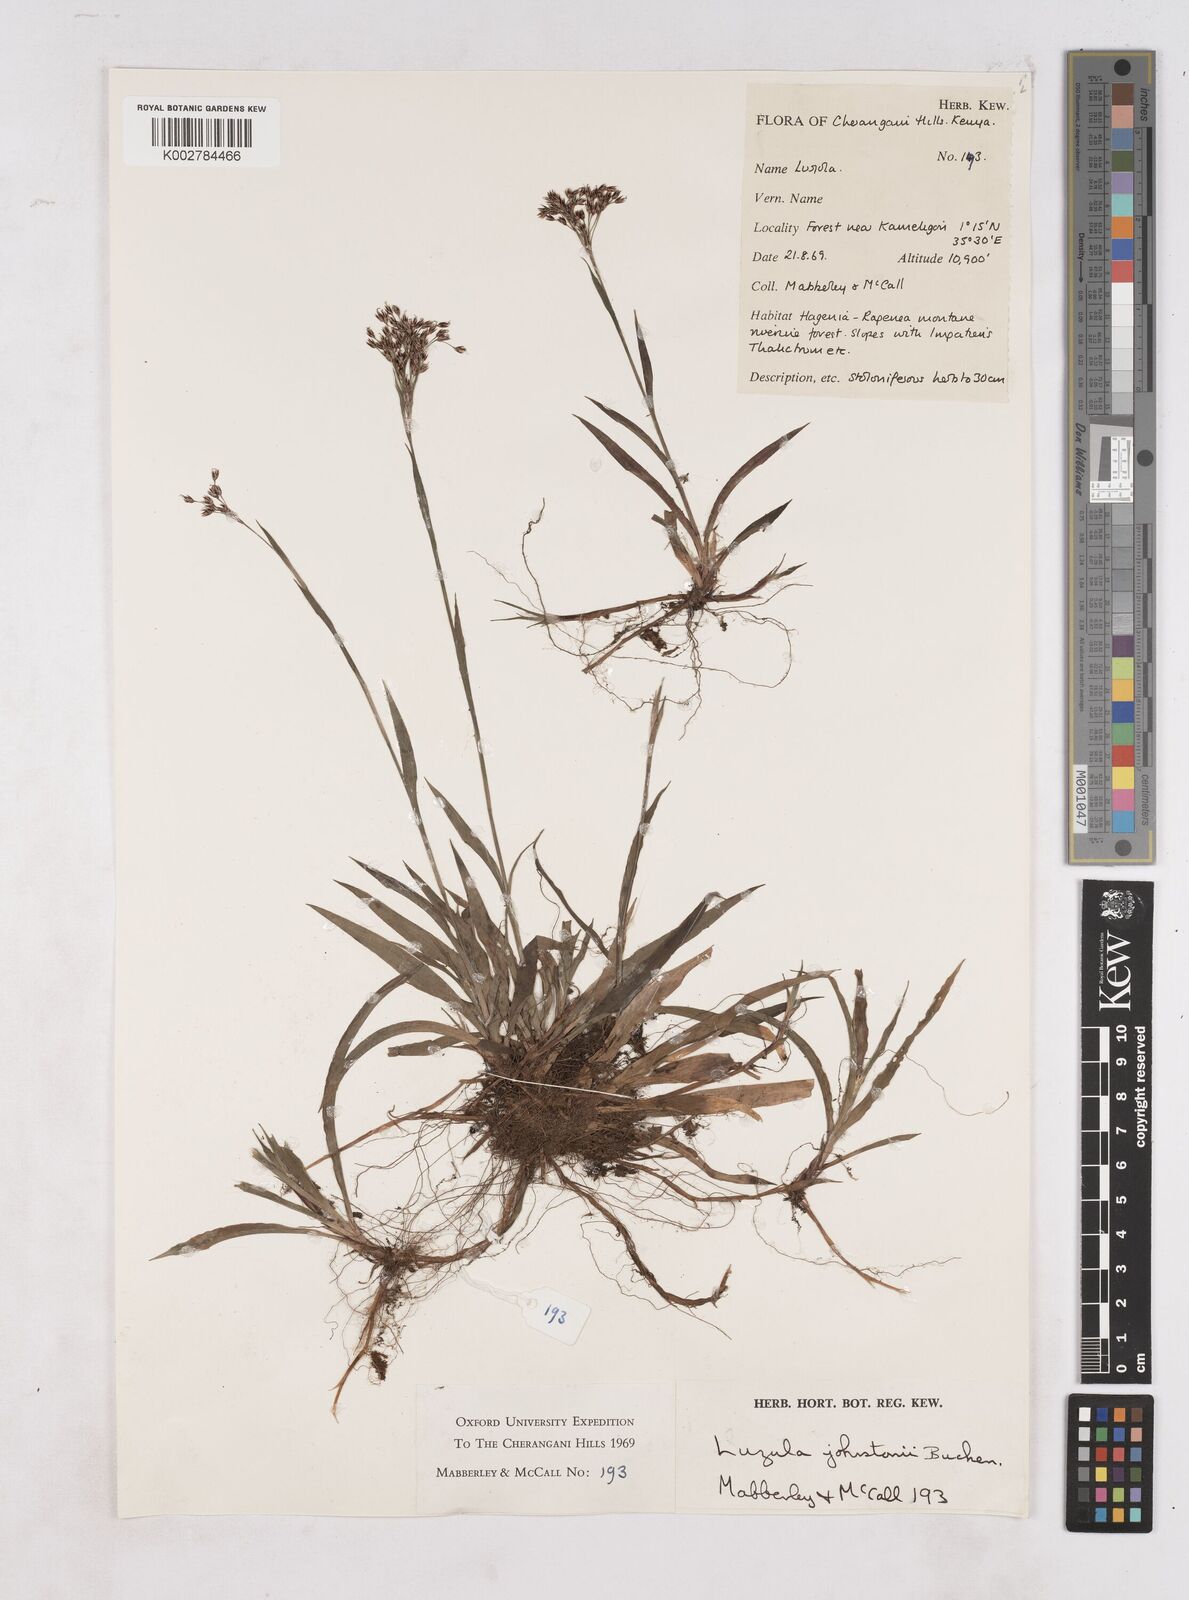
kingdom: Plantae
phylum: Tracheophyta
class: Liliopsida
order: Poales
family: Juncaceae
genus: Luzula
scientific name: Luzula johnstonii
